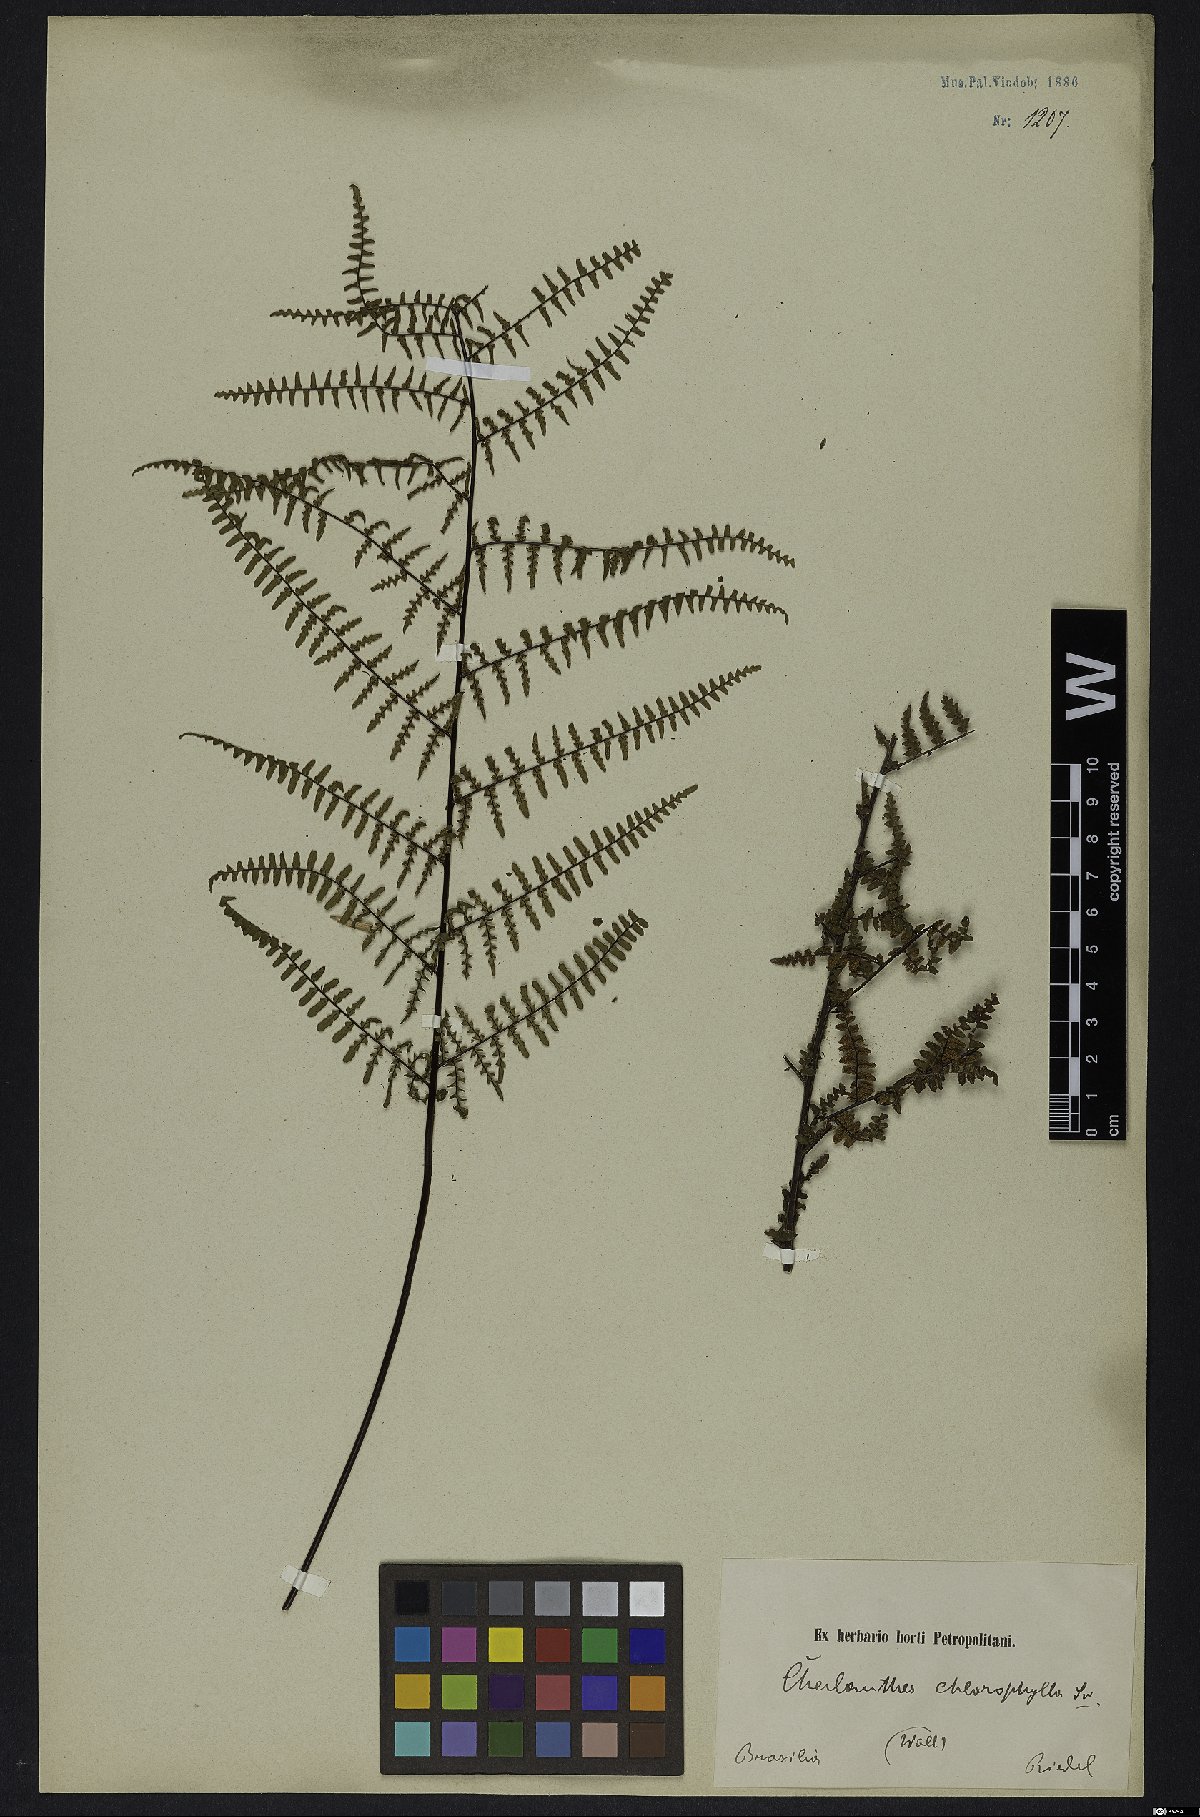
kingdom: Plantae
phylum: Tracheophyta
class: Polypodiopsida
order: Polypodiales
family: Pteridaceae
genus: Adiantopsis
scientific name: Adiantopsis chlorophylla
